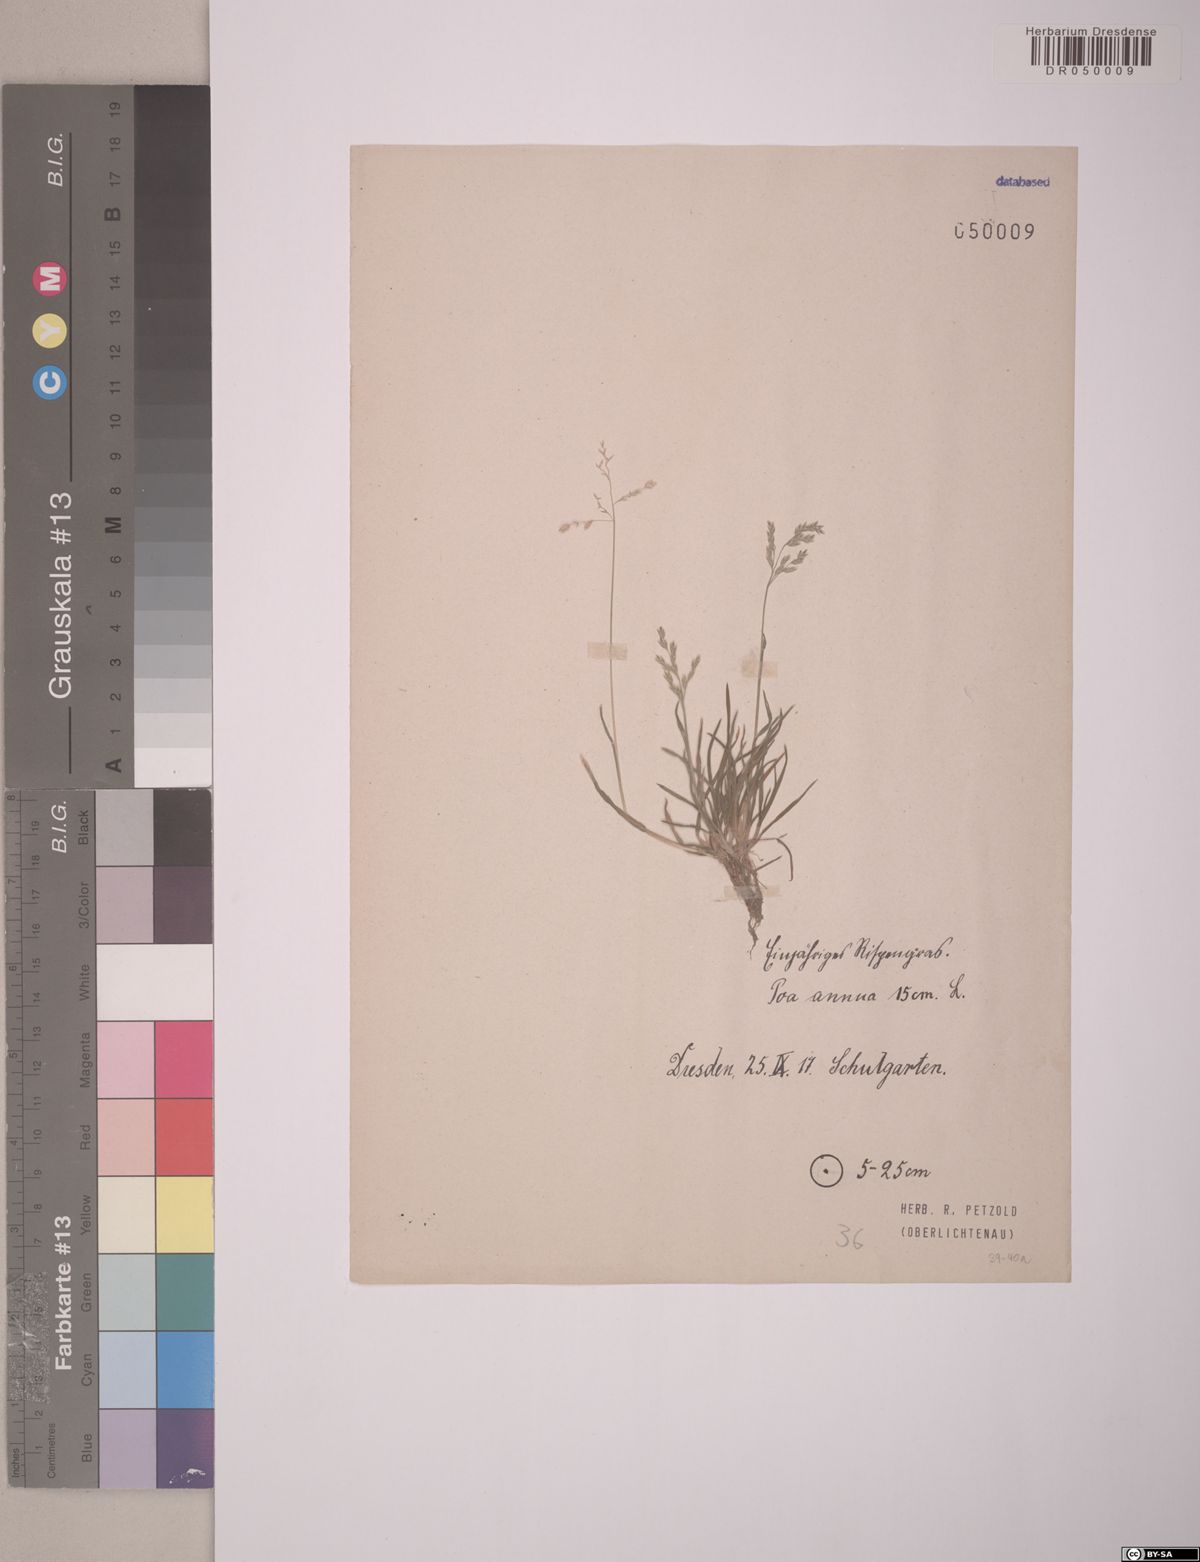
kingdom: Plantae
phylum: Tracheophyta
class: Liliopsida
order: Poales
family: Poaceae
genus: Poa
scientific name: Poa annua
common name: Annual bluegrass
